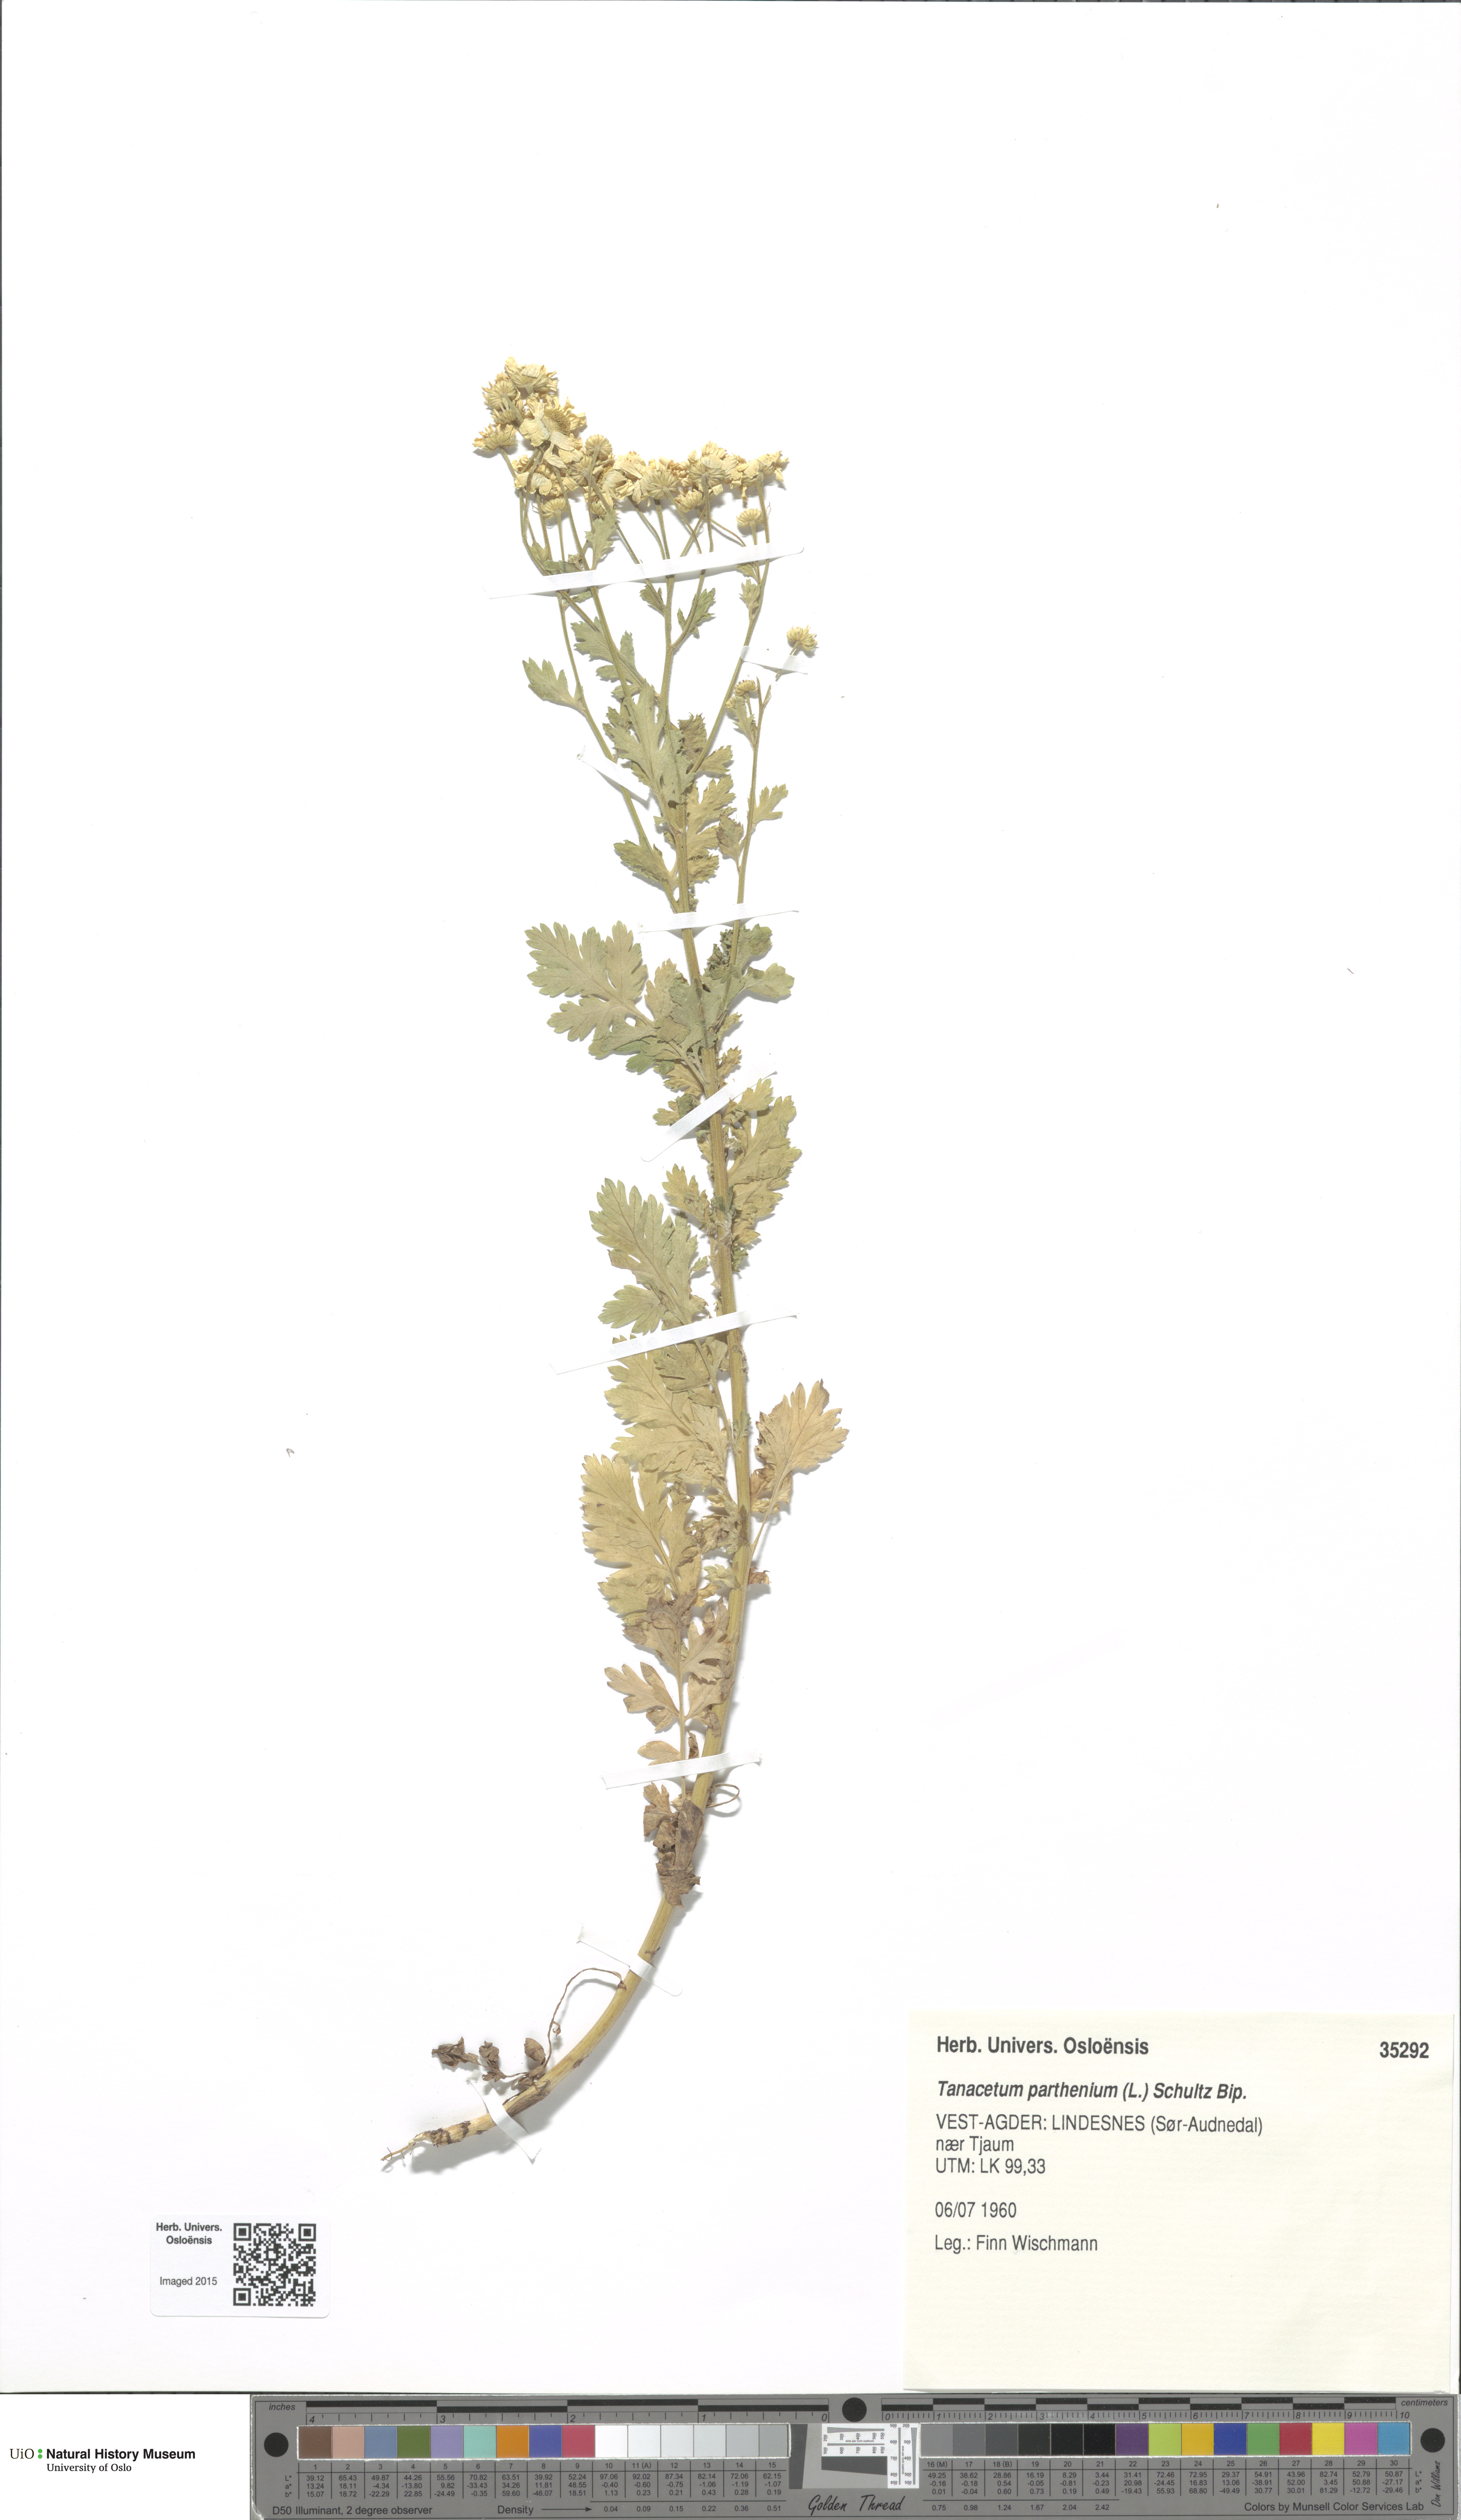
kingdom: Plantae
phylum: Tracheophyta
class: Magnoliopsida
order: Asterales
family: Asteraceae
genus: Tanacetum
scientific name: Tanacetum parthenium
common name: Feverfew
